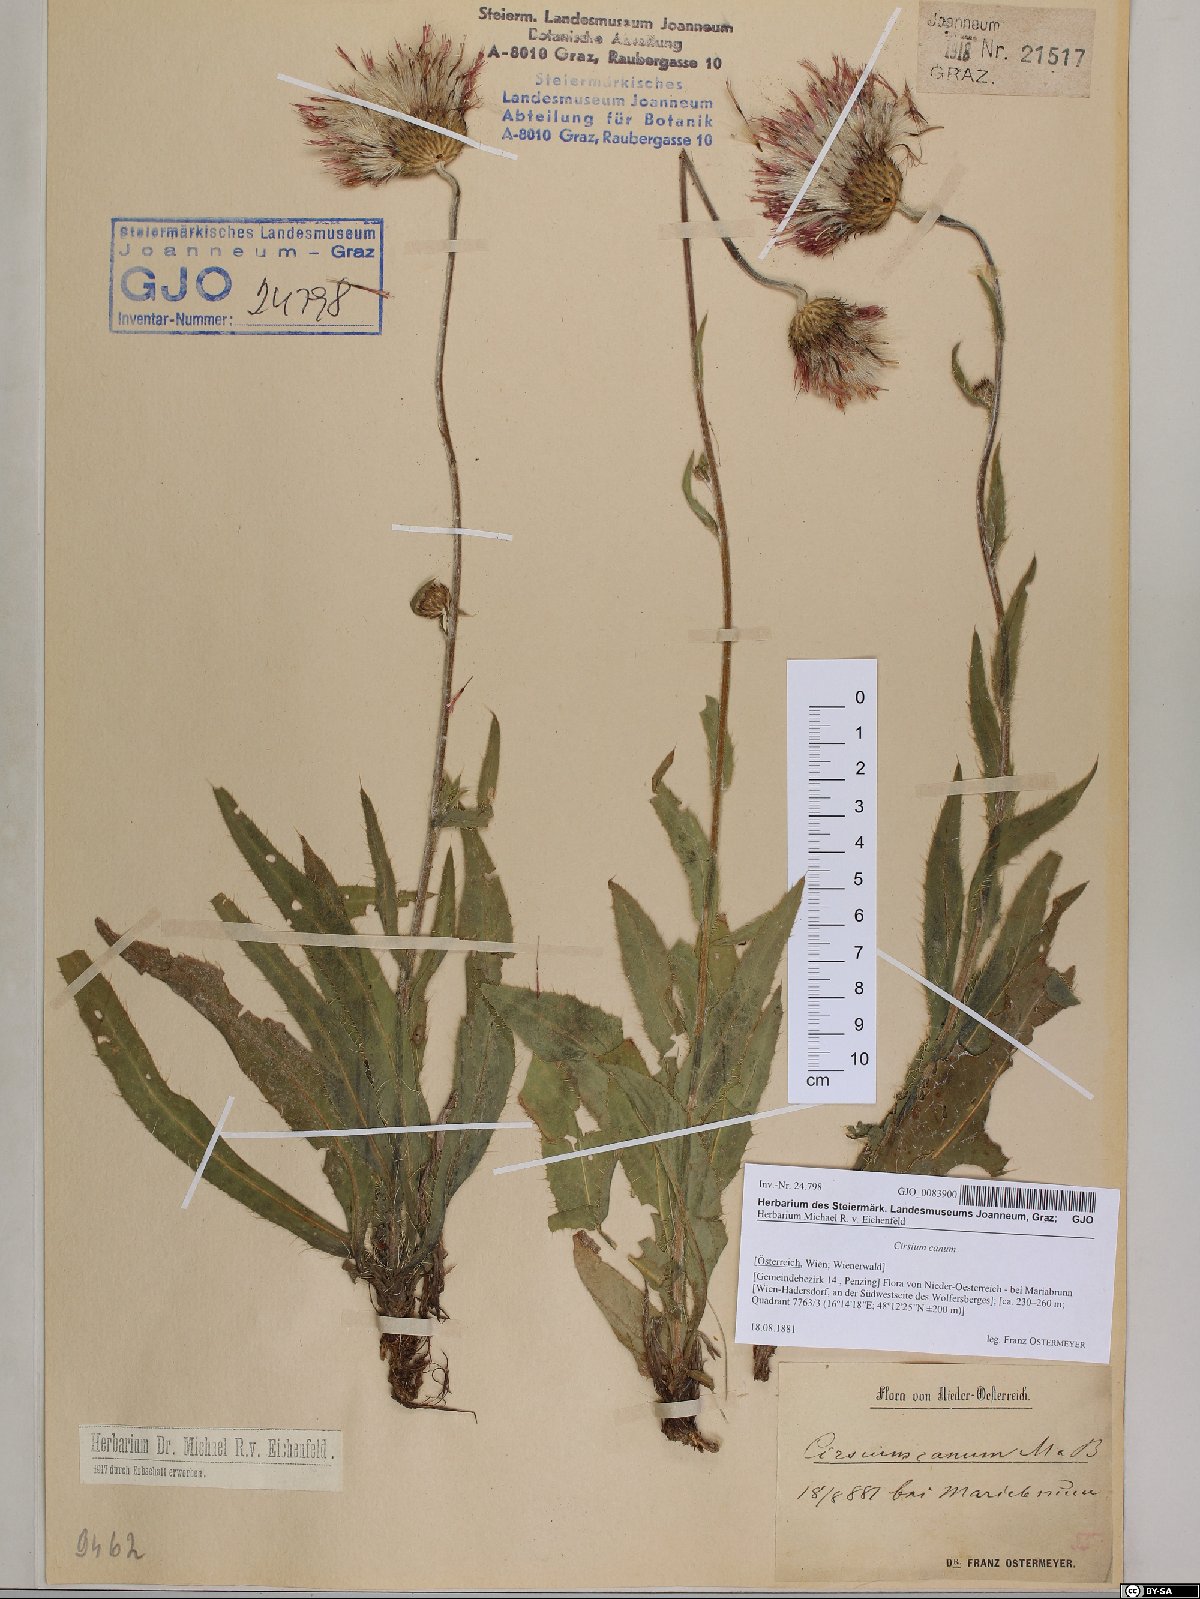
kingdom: Plantae
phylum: Tracheophyta
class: Magnoliopsida
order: Asterales
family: Asteraceae
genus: Cirsium
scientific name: Cirsium canum
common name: Queen anne's thistle
